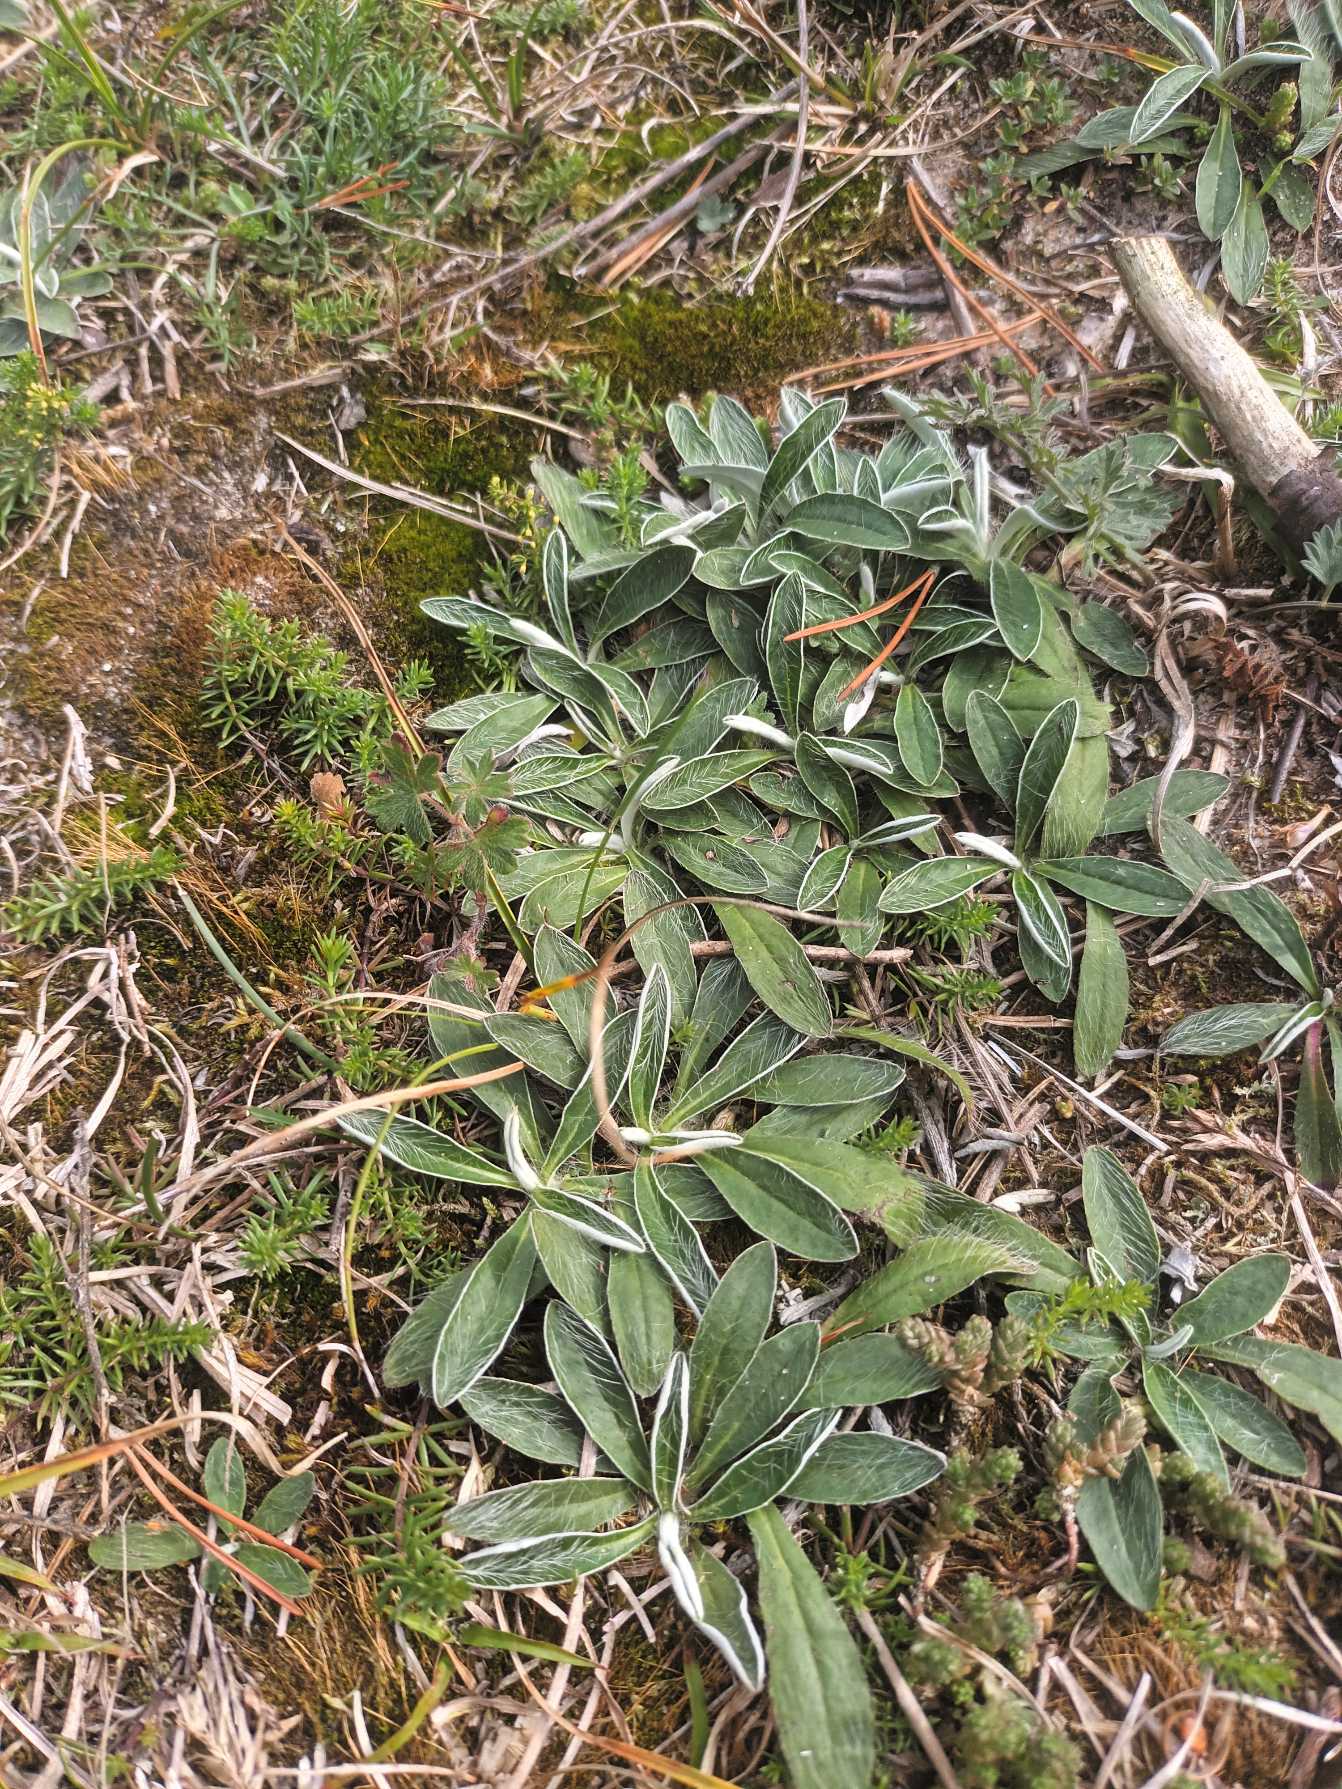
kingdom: Plantae
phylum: Tracheophyta
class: Magnoliopsida
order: Asterales
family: Asteraceae
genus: Pilosella
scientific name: Pilosella peleteriana
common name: Klit-høgeurt
